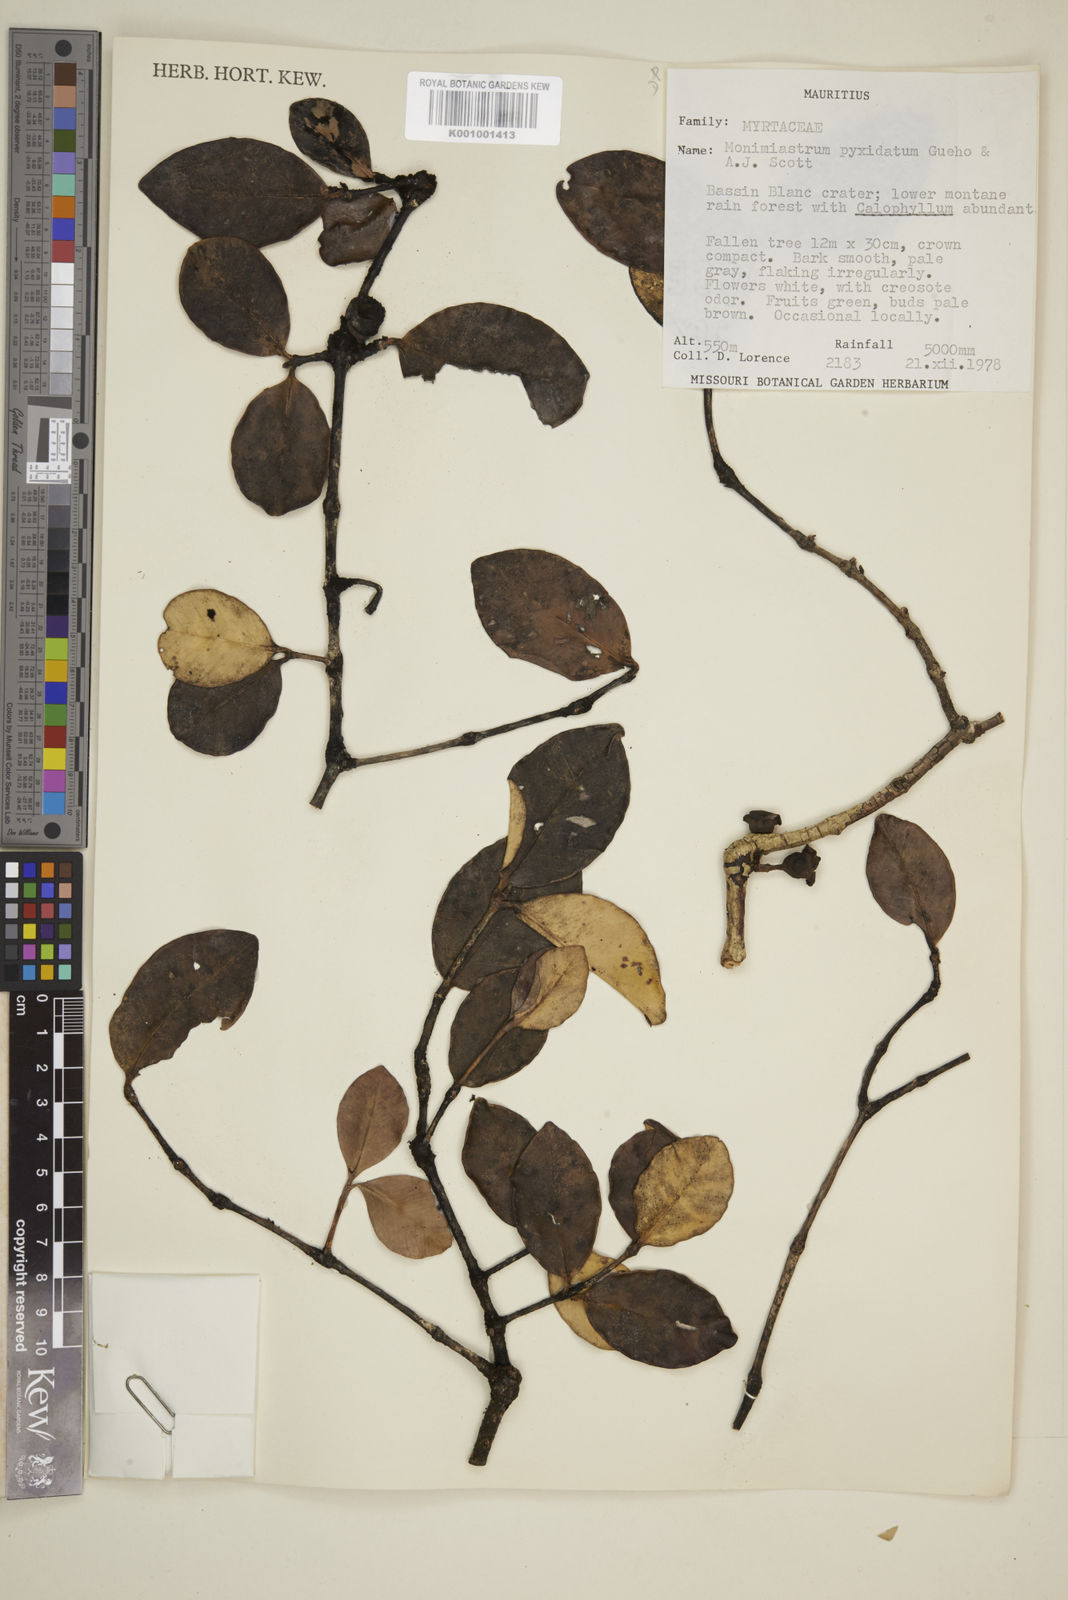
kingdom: Plantae
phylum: Tracheophyta
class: Magnoliopsida
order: Myrtales
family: Myrtaceae
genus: Eugenia
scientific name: Eugenia pyxidata
